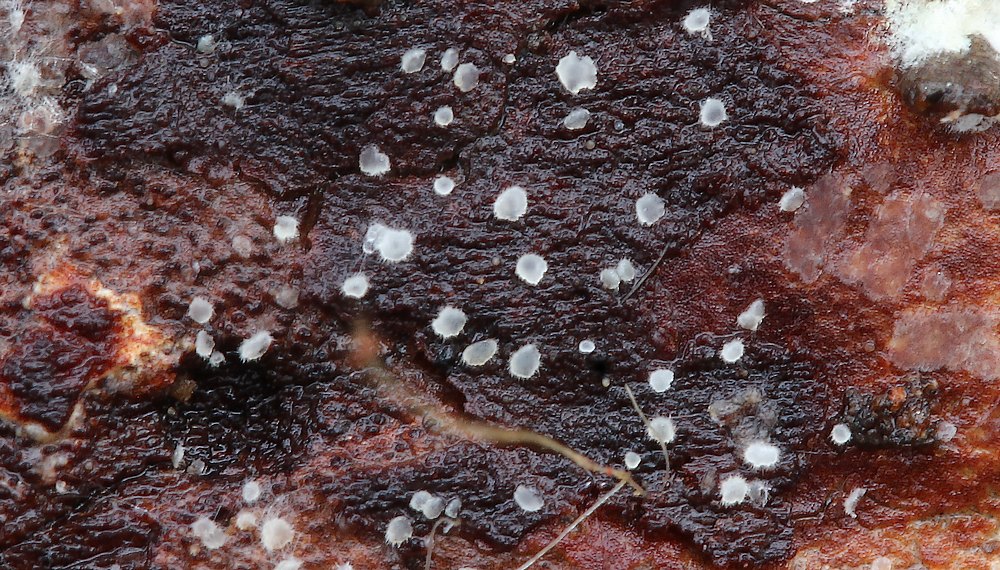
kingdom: Fungi
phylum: Basidiomycota
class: Agaricomycetes
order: Agaricales
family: Crepidotaceae
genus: Pellidiscus
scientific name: Pellidiscus pallidus
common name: skålformet muslingesvamp
